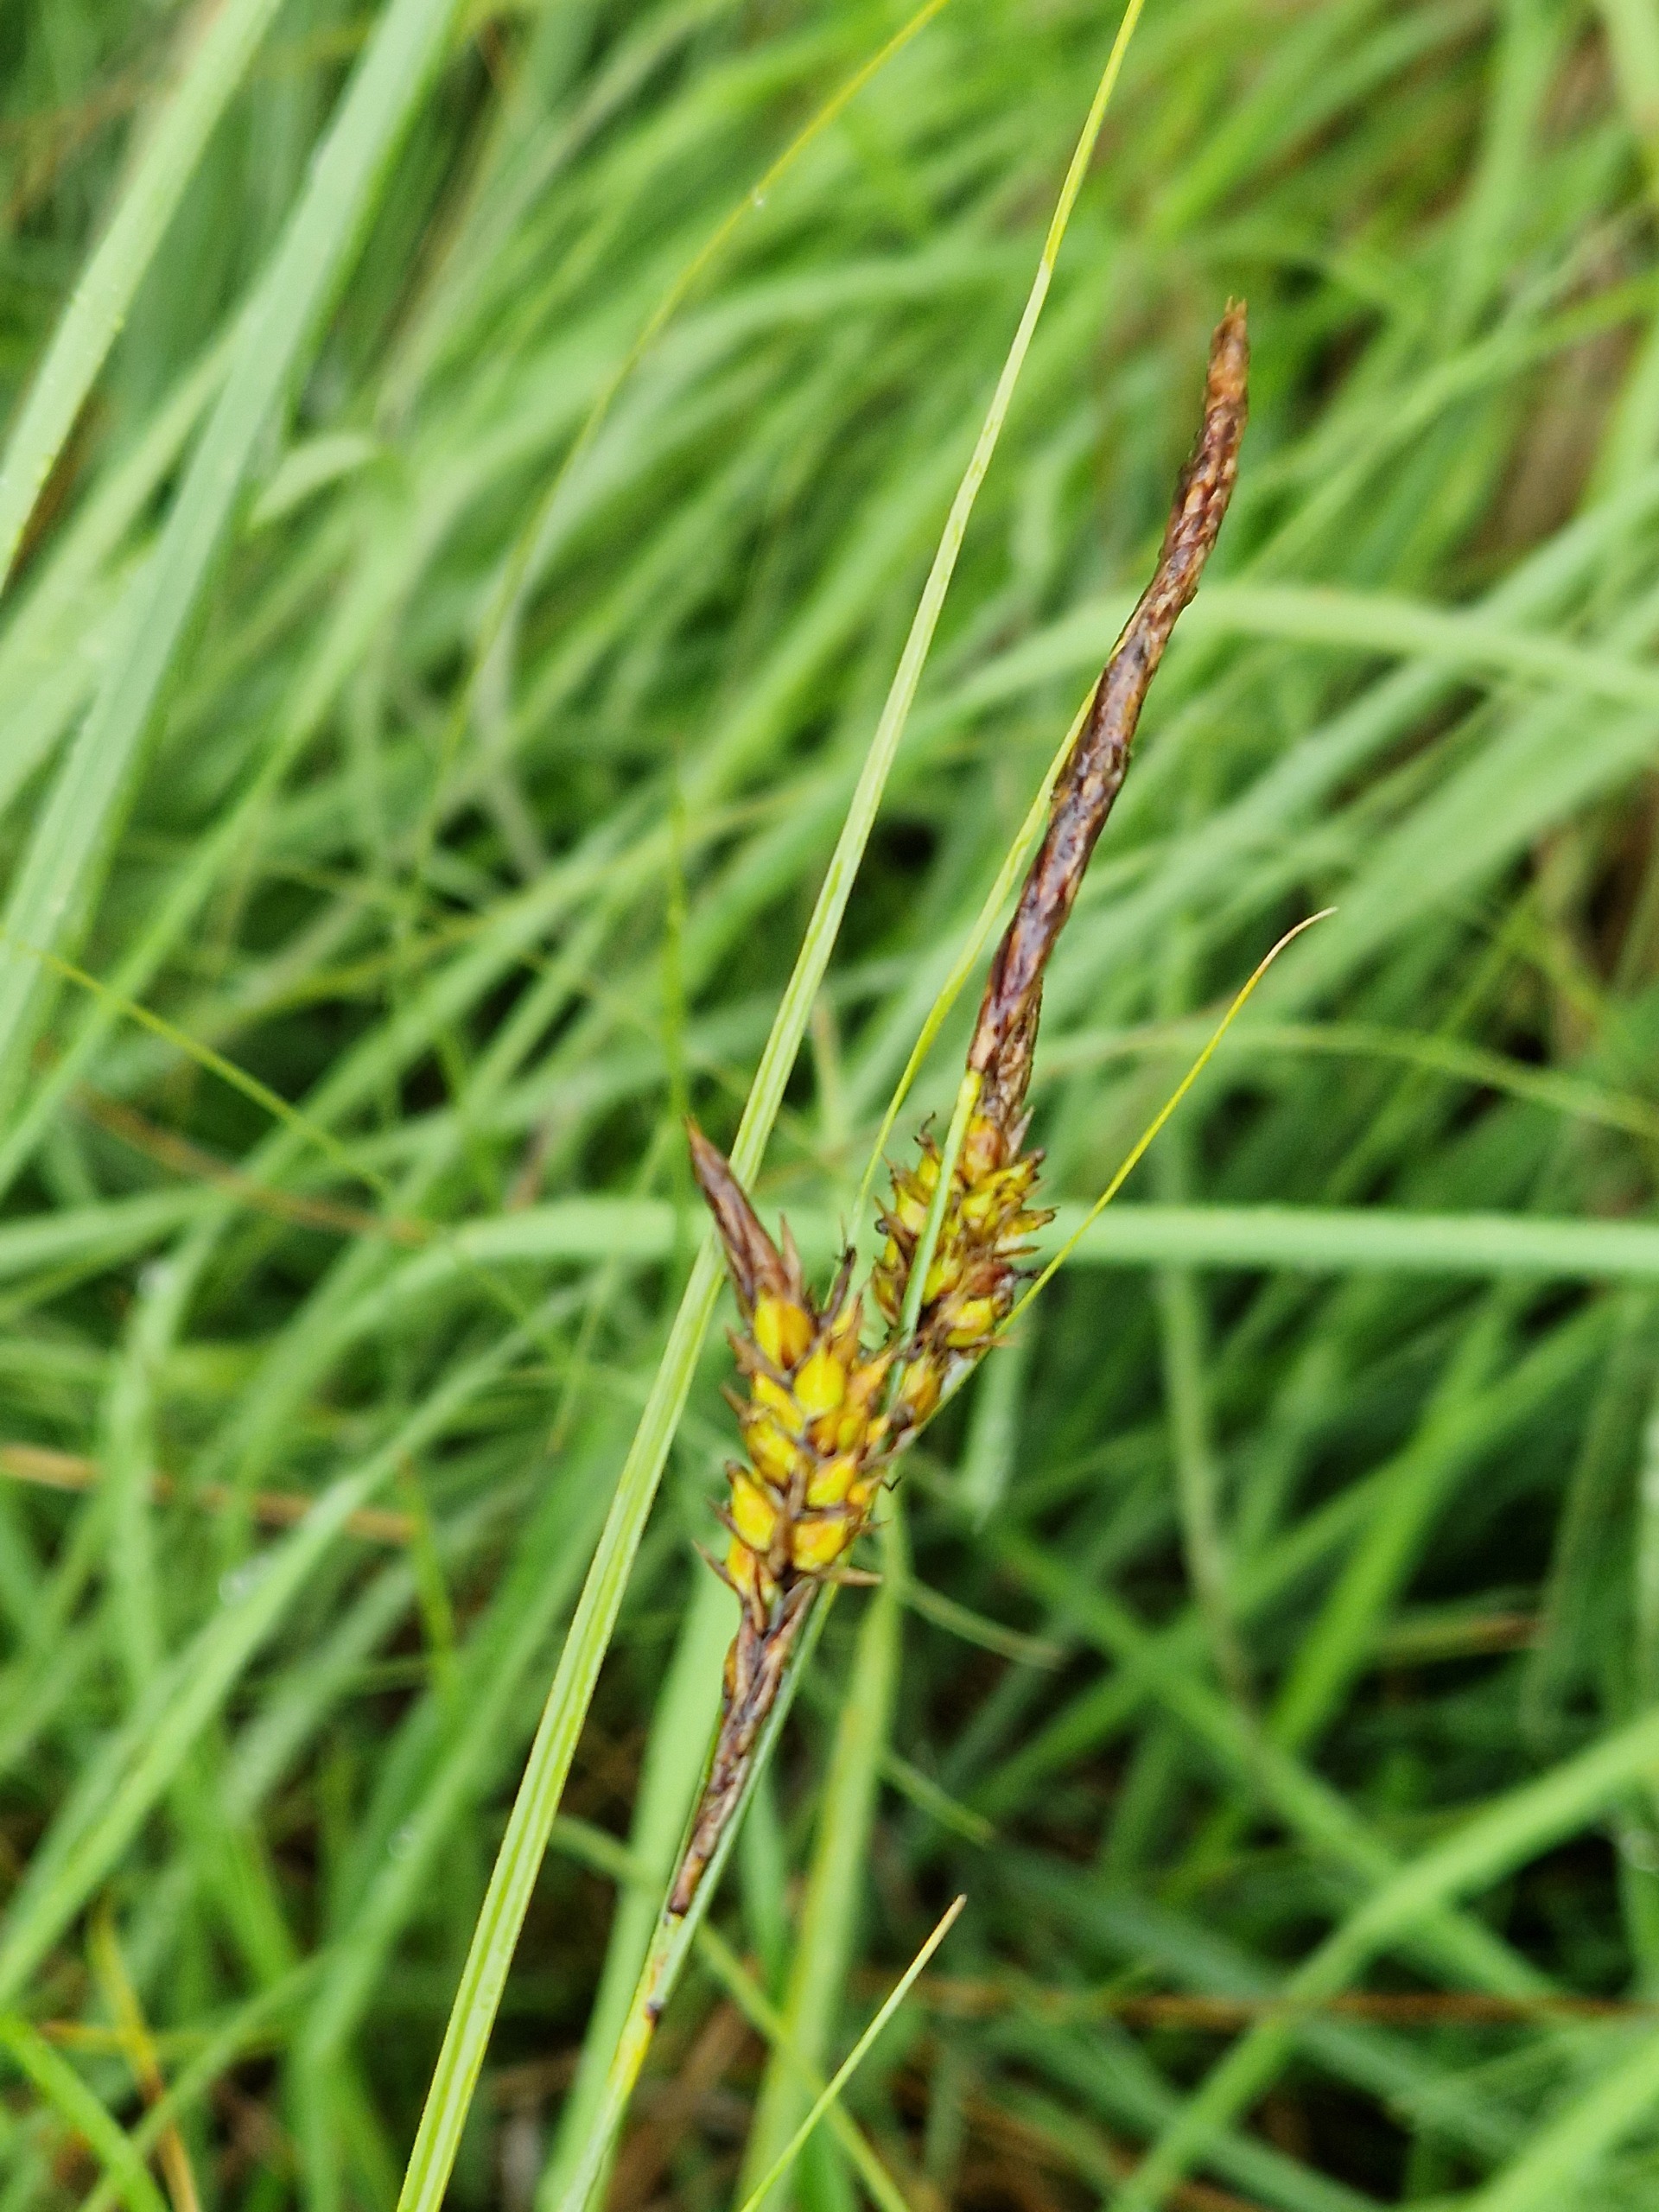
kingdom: Plantae
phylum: Tracheophyta
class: Liliopsida
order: Poales
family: Cyperaceae
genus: Carex
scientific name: Carex lasiocarpa
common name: Tråd-star
